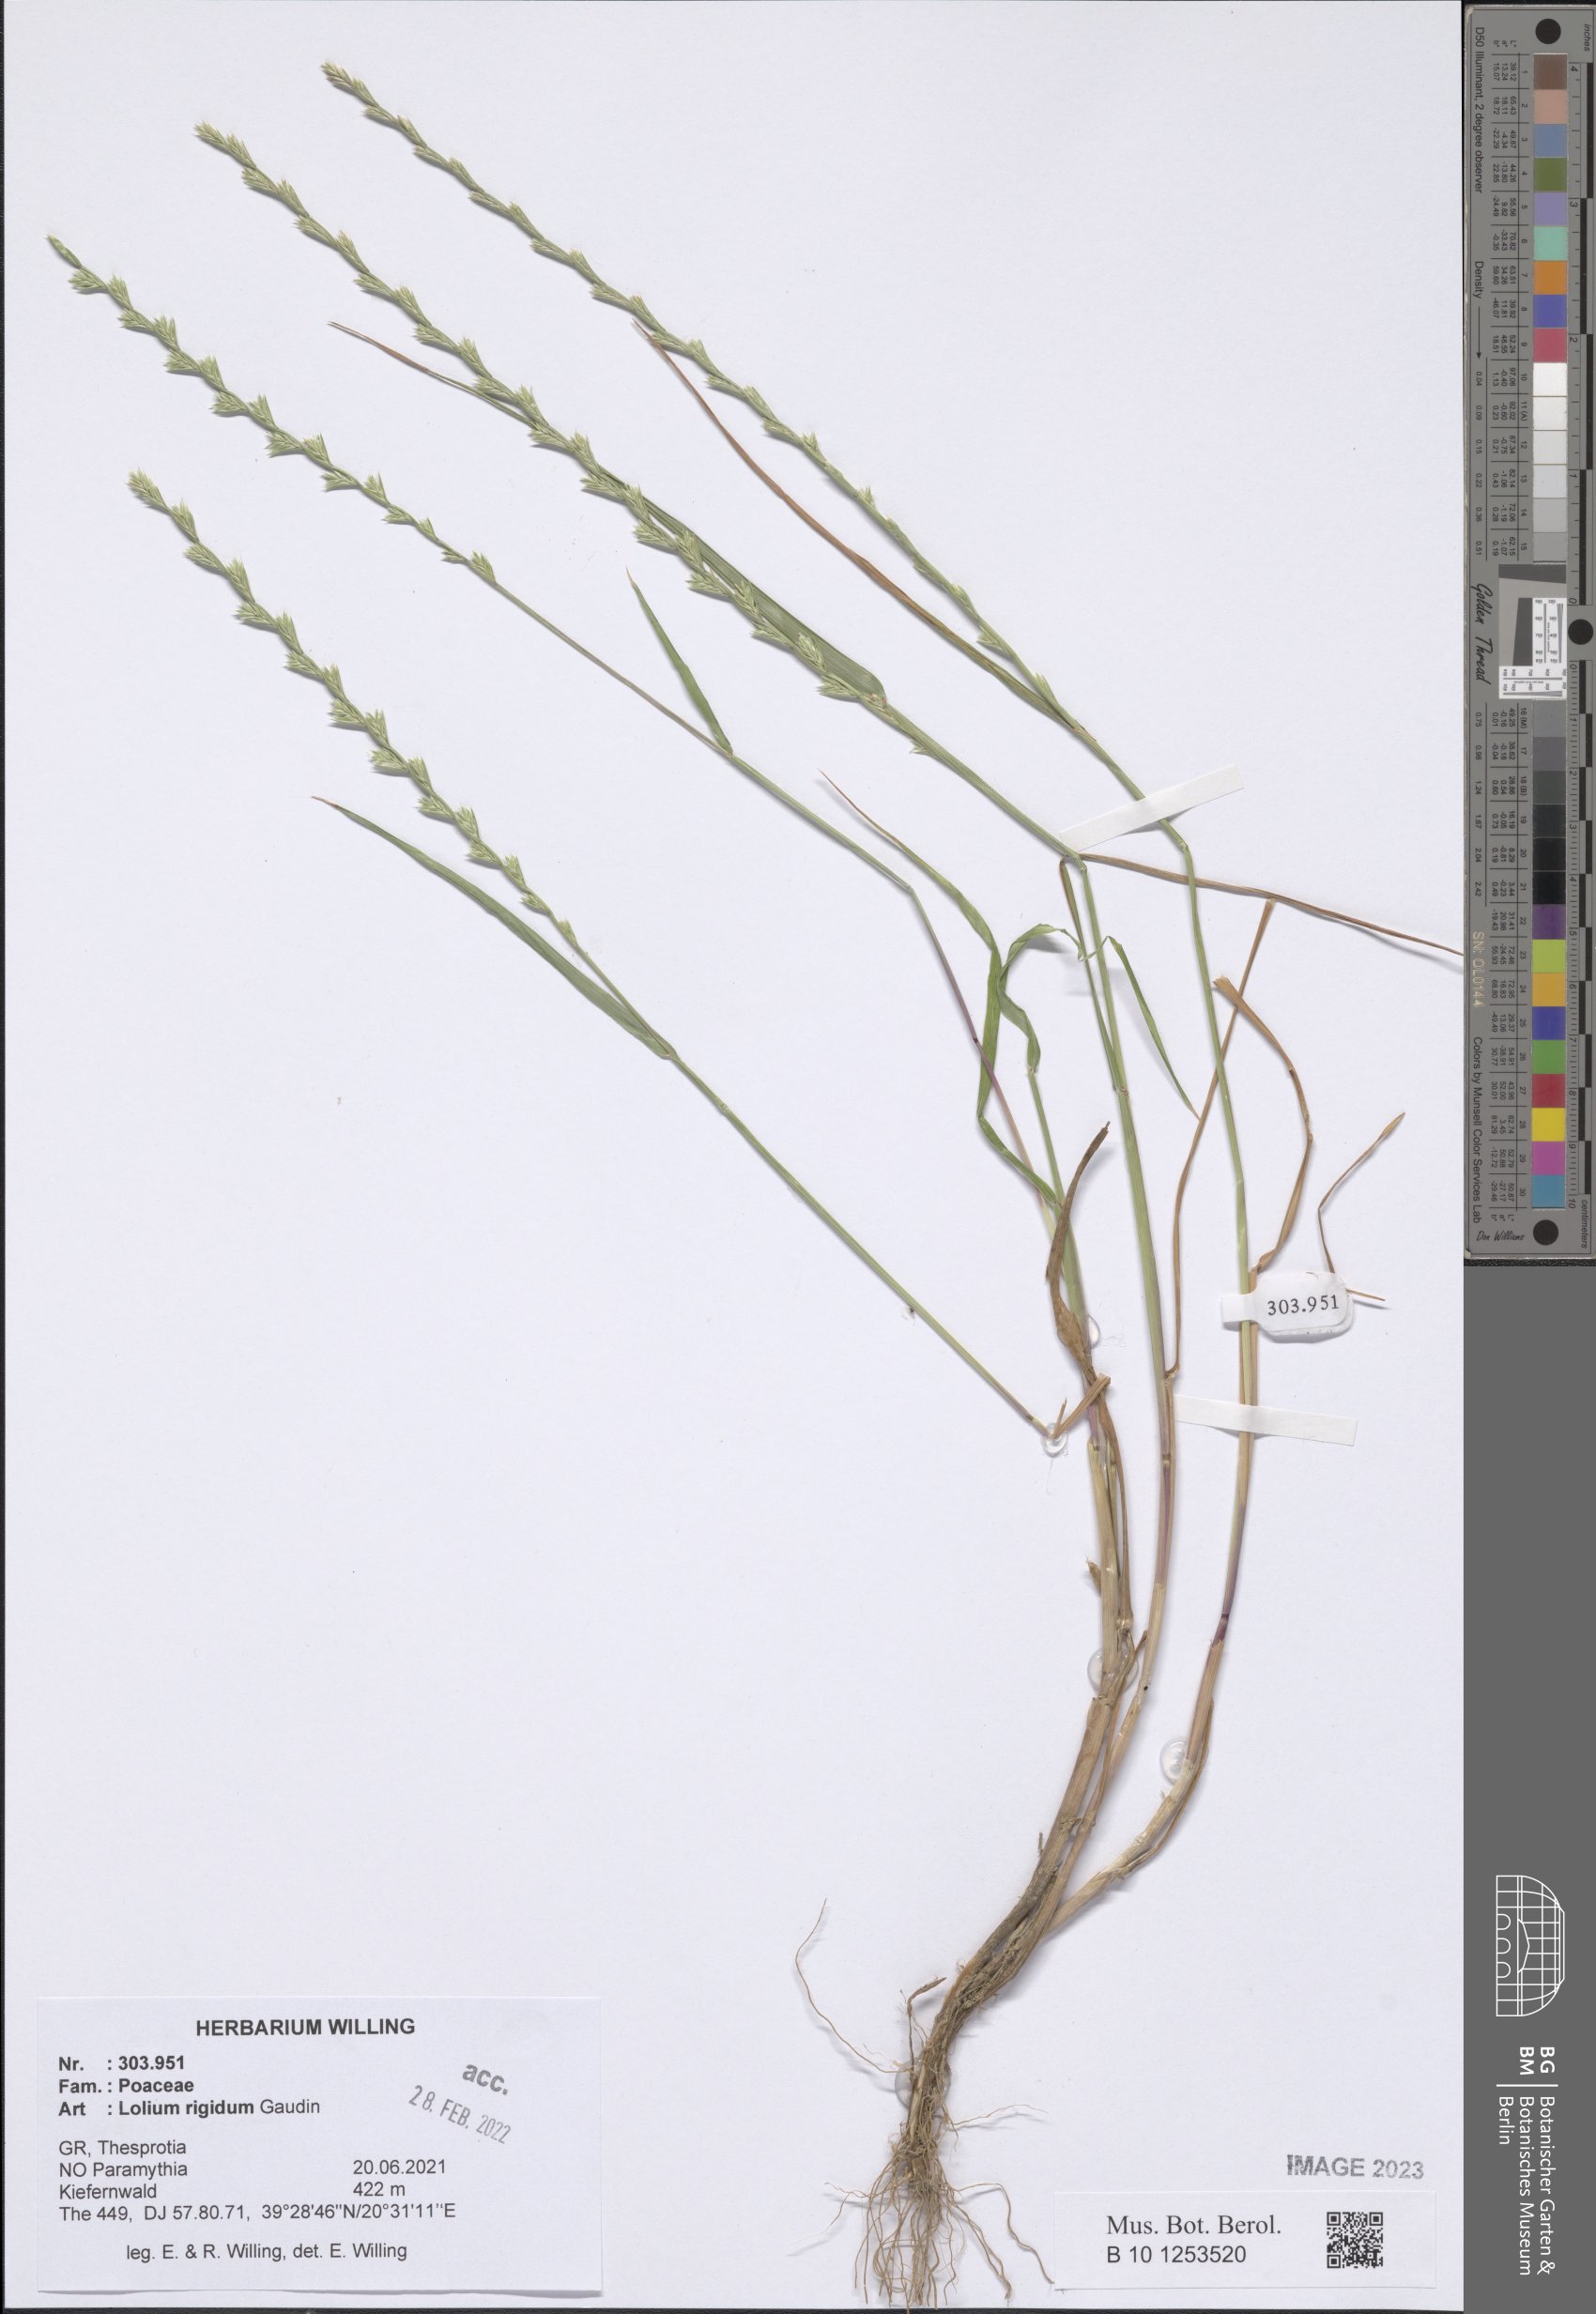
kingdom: Plantae
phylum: Tracheophyta
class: Liliopsida
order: Poales
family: Poaceae
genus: Lolium
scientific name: Lolium rigidum
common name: Wimmera ryegrass
